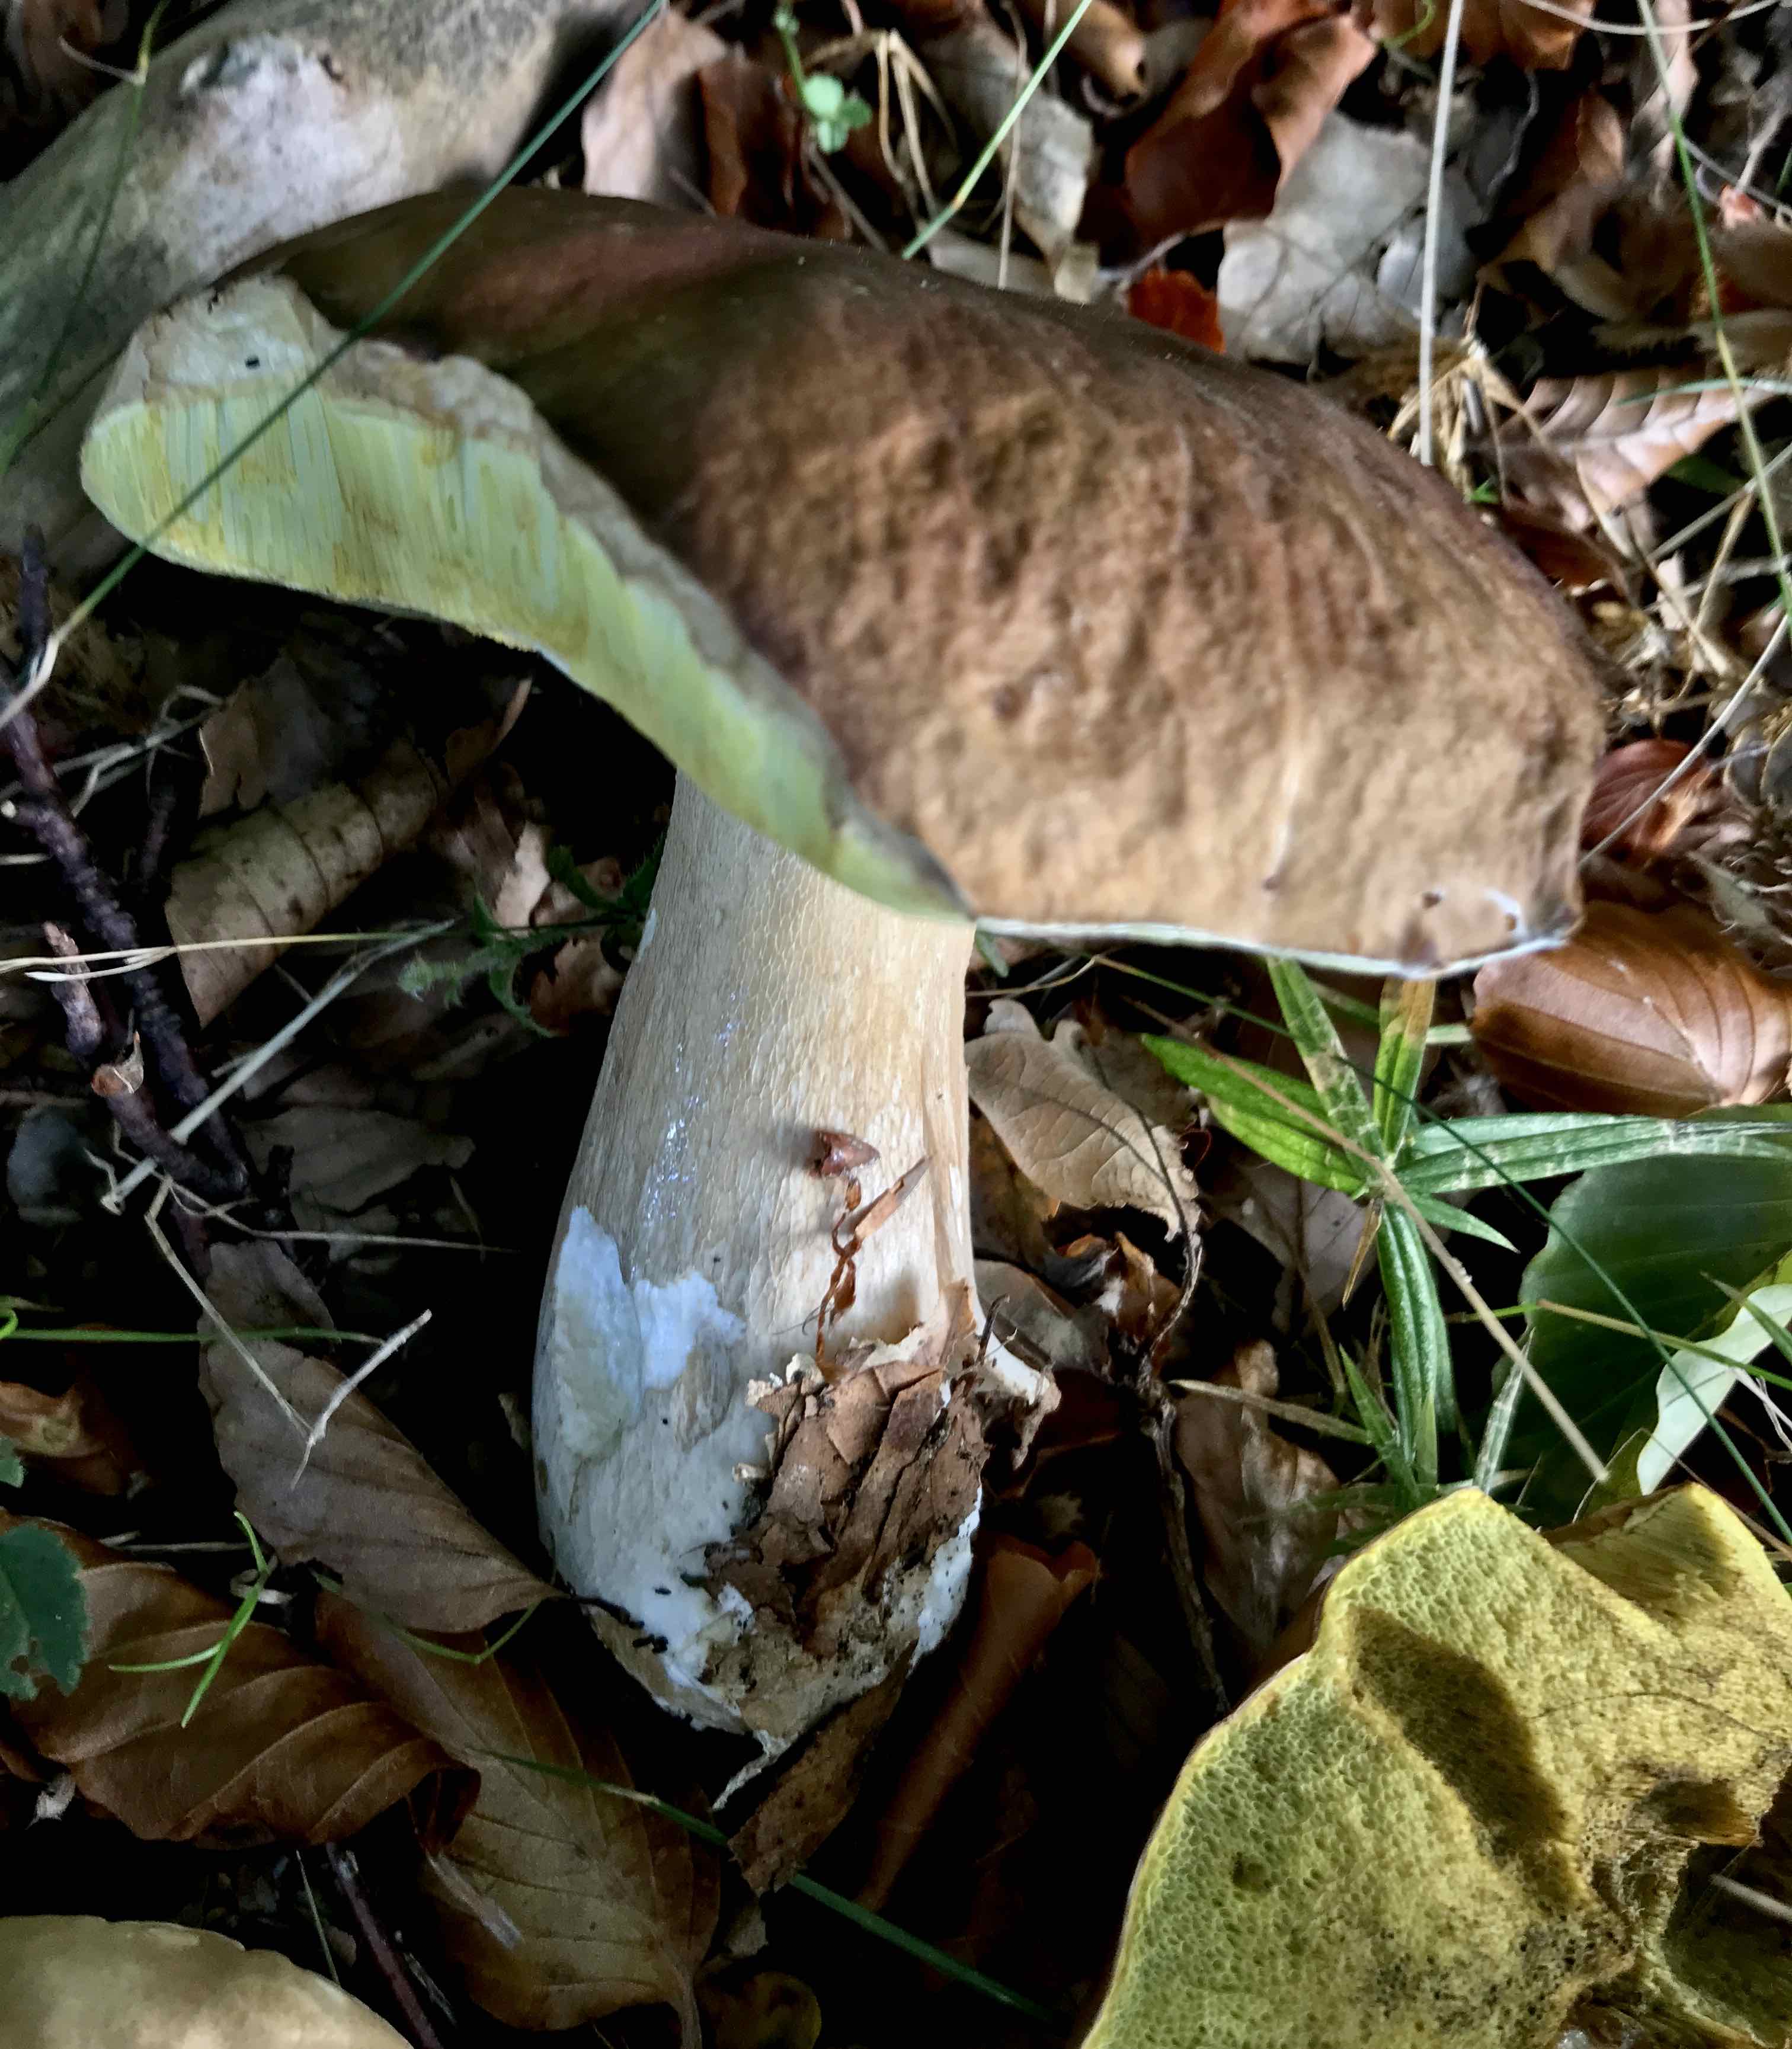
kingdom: Fungi
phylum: Basidiomycota
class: Agaricomycetes
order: Boletales
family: Boletaceae
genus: Boletus
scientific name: Boletus edulis
